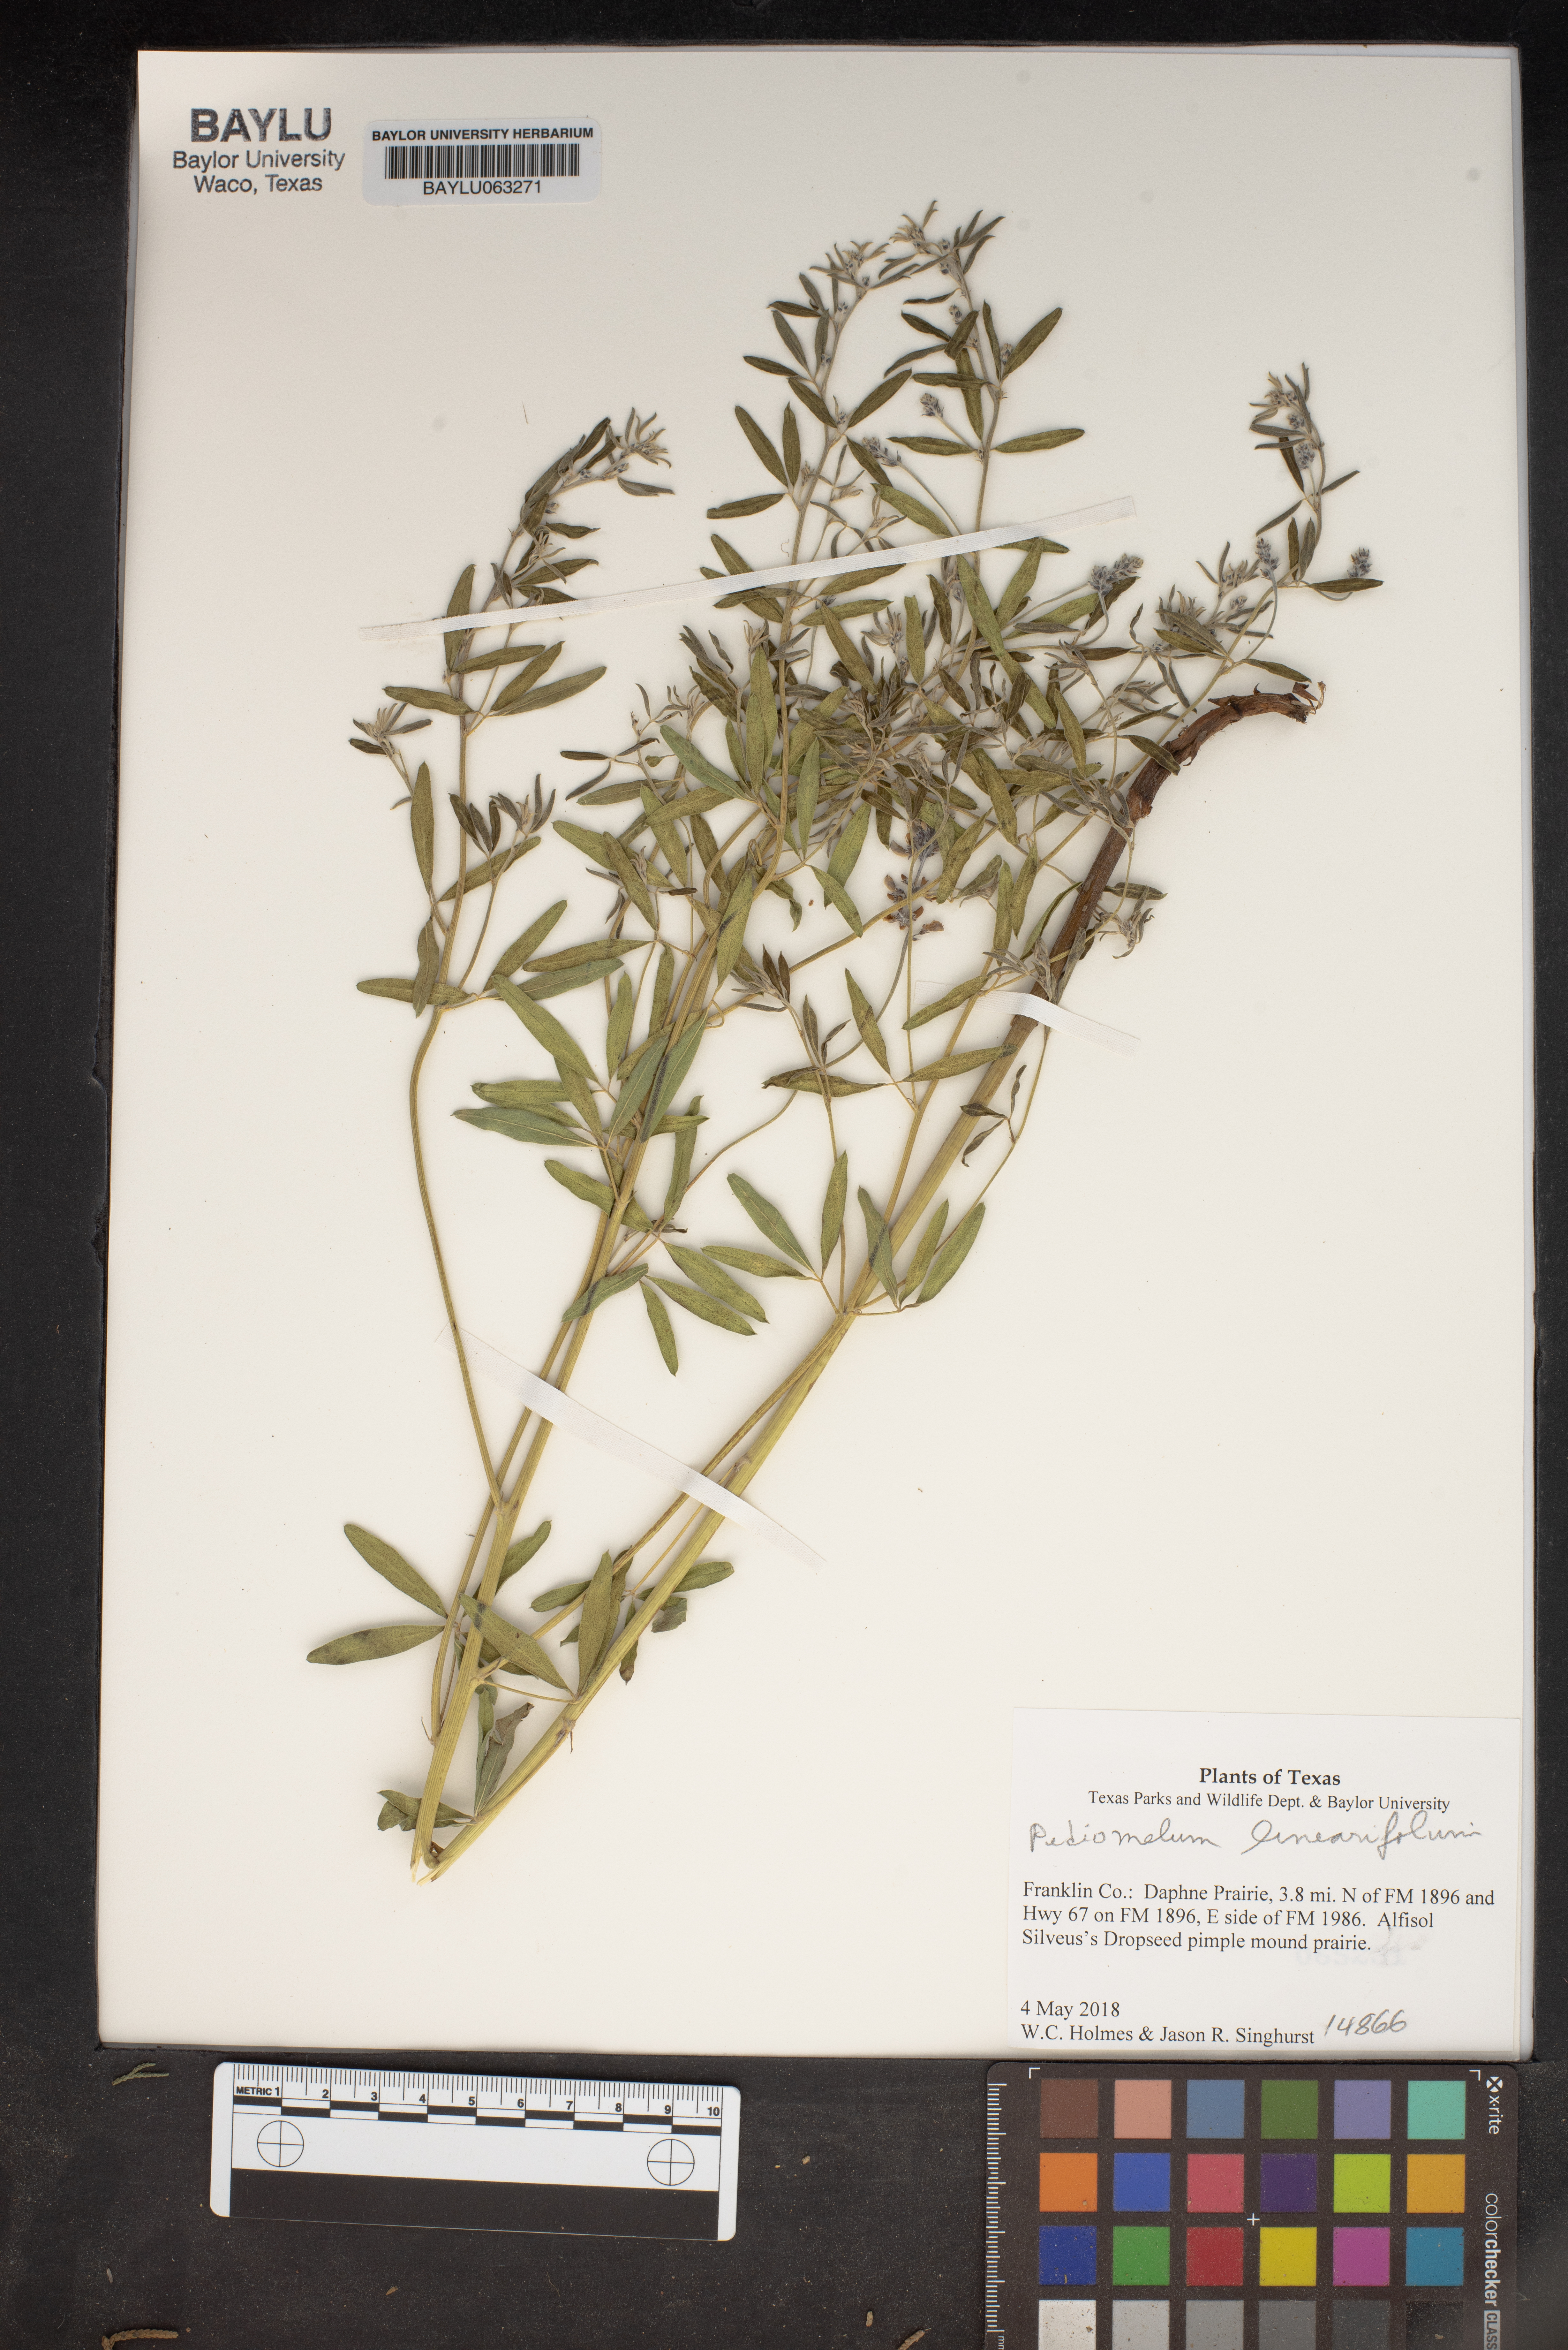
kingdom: Plantae
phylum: Tracheophyta
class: Magnoliopsida
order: Fabales
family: Fabaceae
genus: Pediomelum
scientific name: Pediomelum linearifolium
